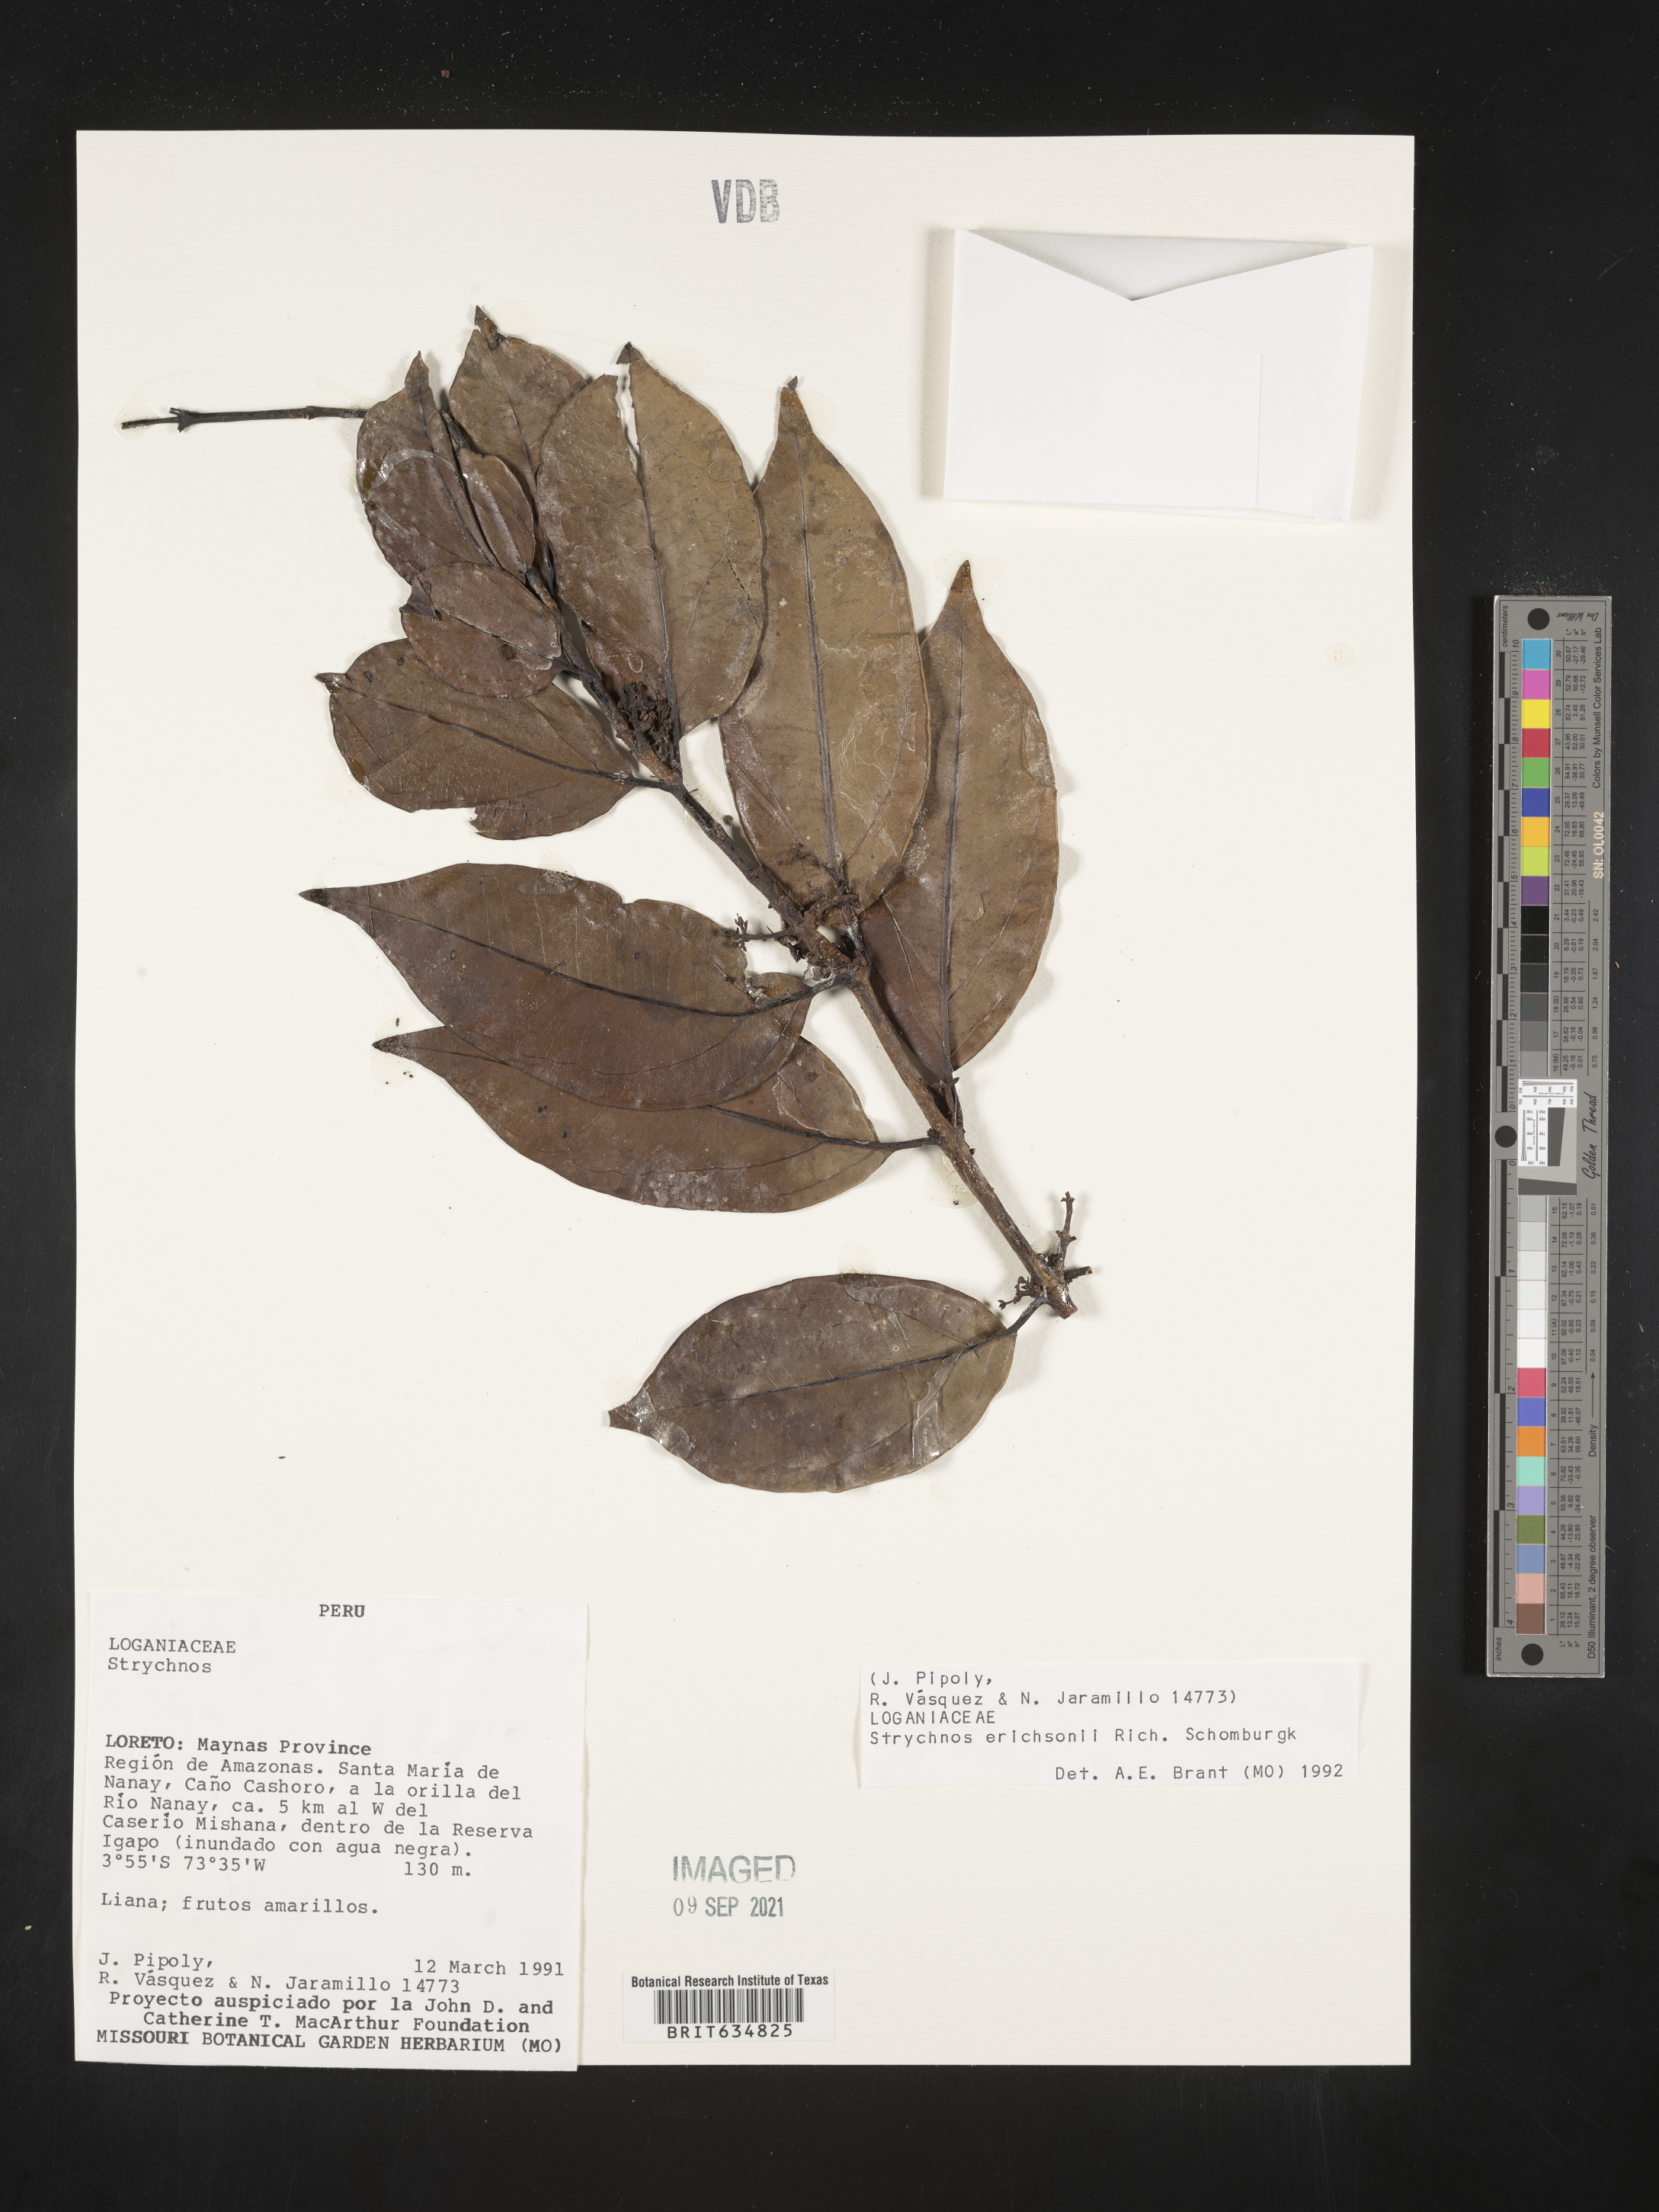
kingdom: Plantae
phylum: Tracheophyta
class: Magnoliopsida
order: Gentianales
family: Loganiaceae
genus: Strychnos
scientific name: Strychnos
